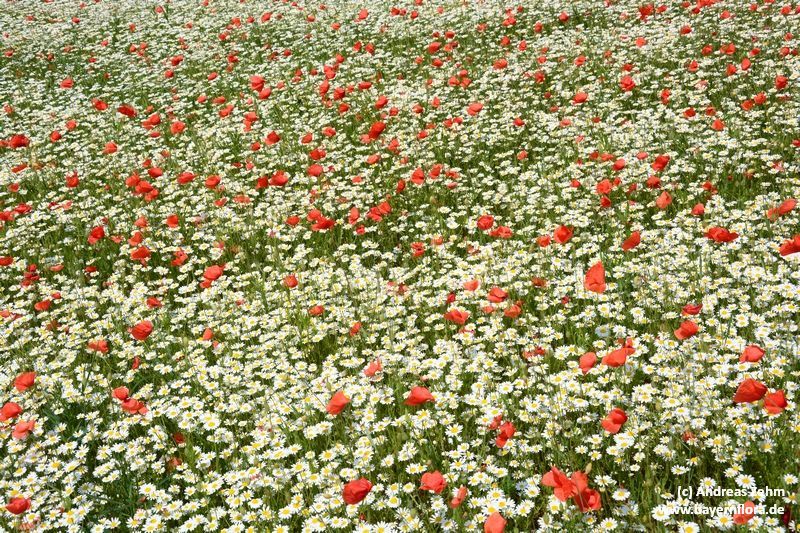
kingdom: Plantae
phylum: Tracheophyta
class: Magnoliopsida
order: Asterales
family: Asteraceae
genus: Cota
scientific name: Cota austriaca
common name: Austrian chamomile
